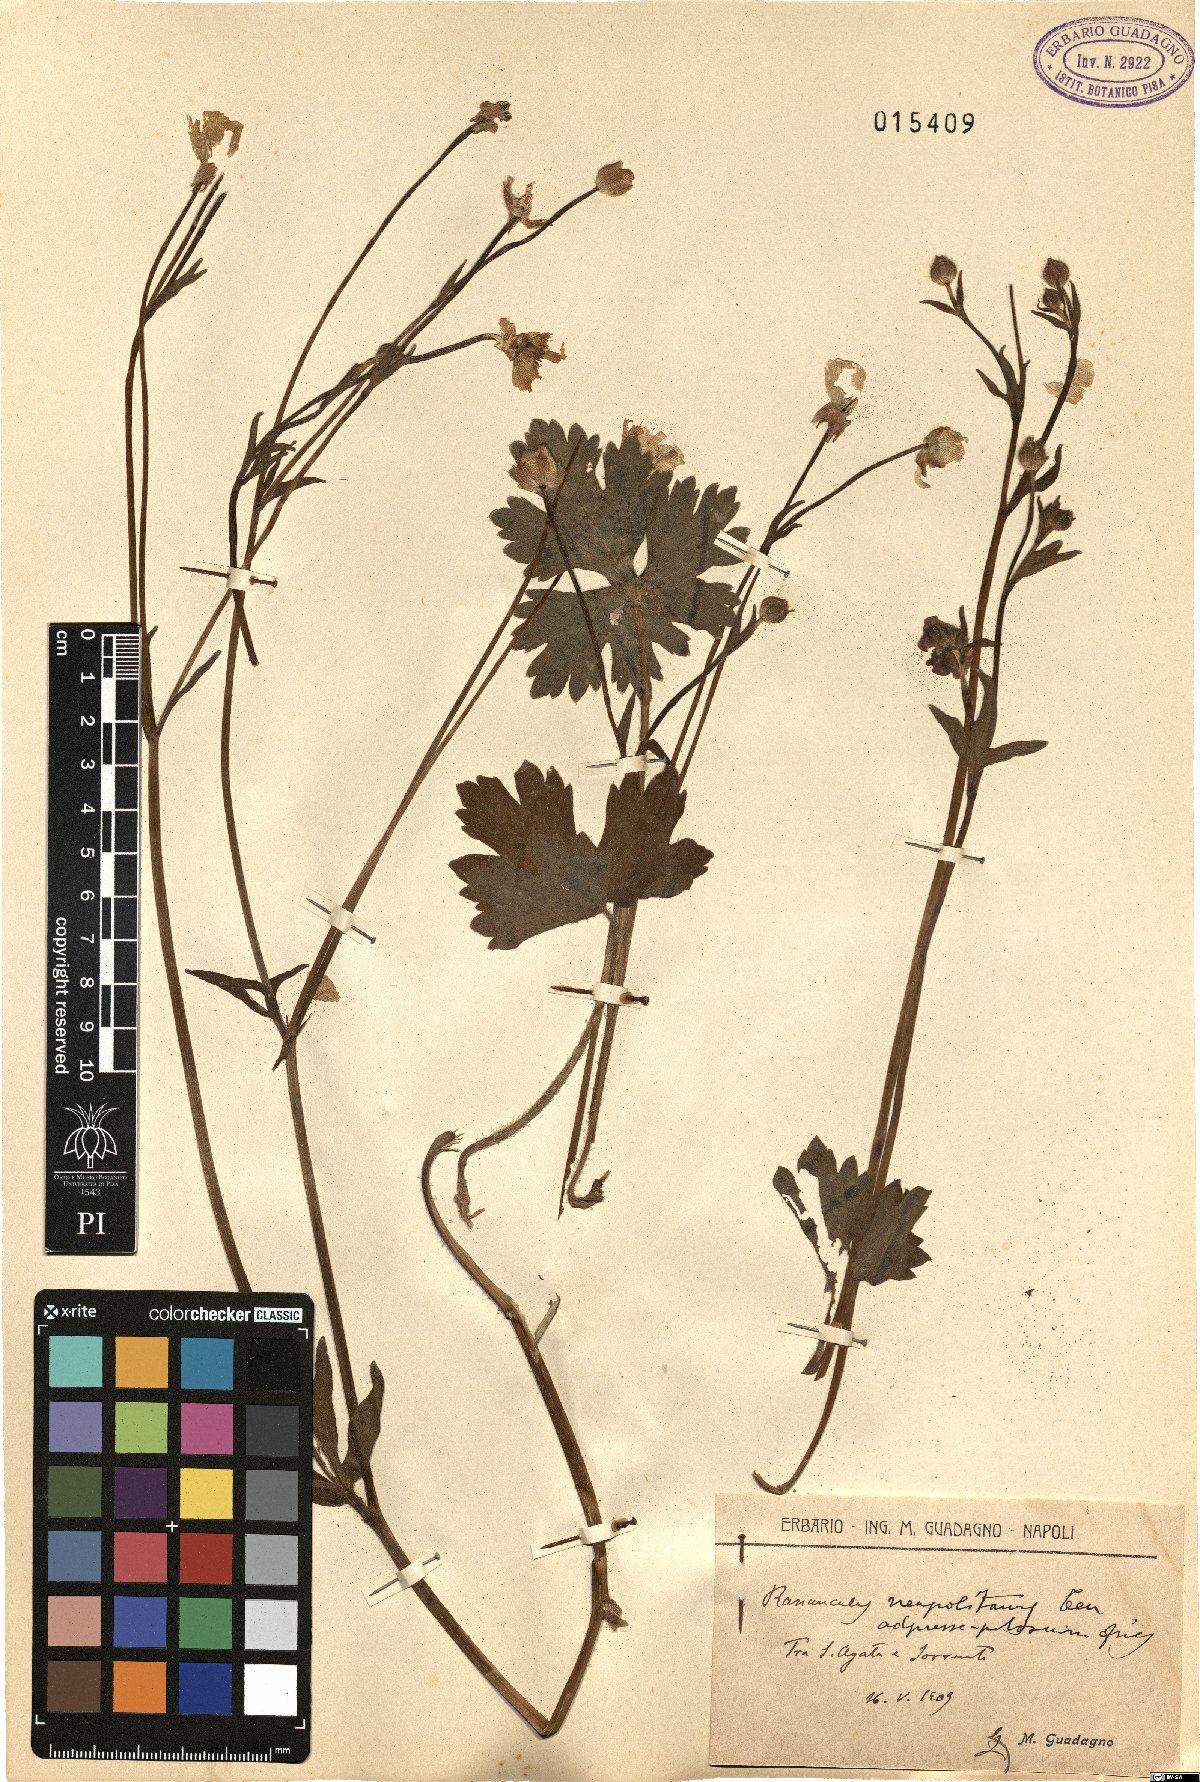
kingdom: Plantae
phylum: Tracheophyta
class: Magnoliopsida
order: Ranunculales
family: Ranunculaceae
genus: Ranunculus
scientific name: Ranunculus neapolitanus
